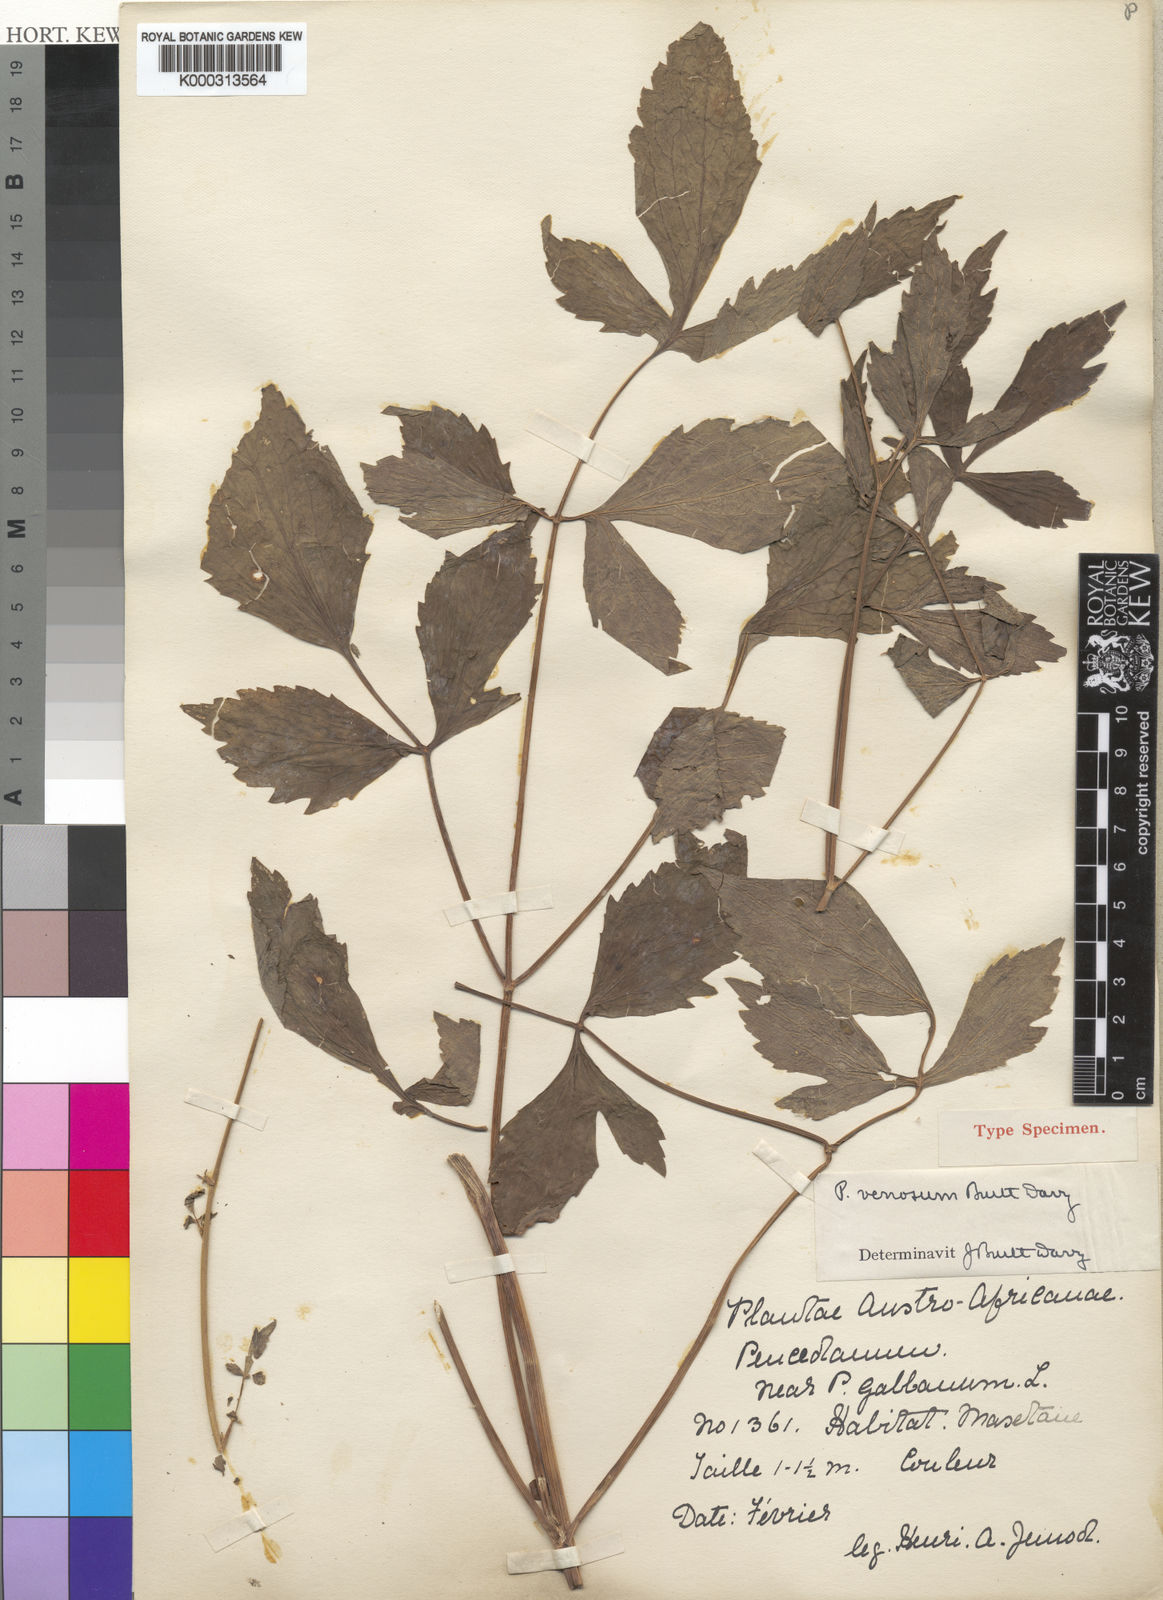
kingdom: Plantae
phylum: Tracheophyta
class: Magnoliopsida
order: Apiales
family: Apiaceae
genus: Lefebvrea
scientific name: Lefebvrea
